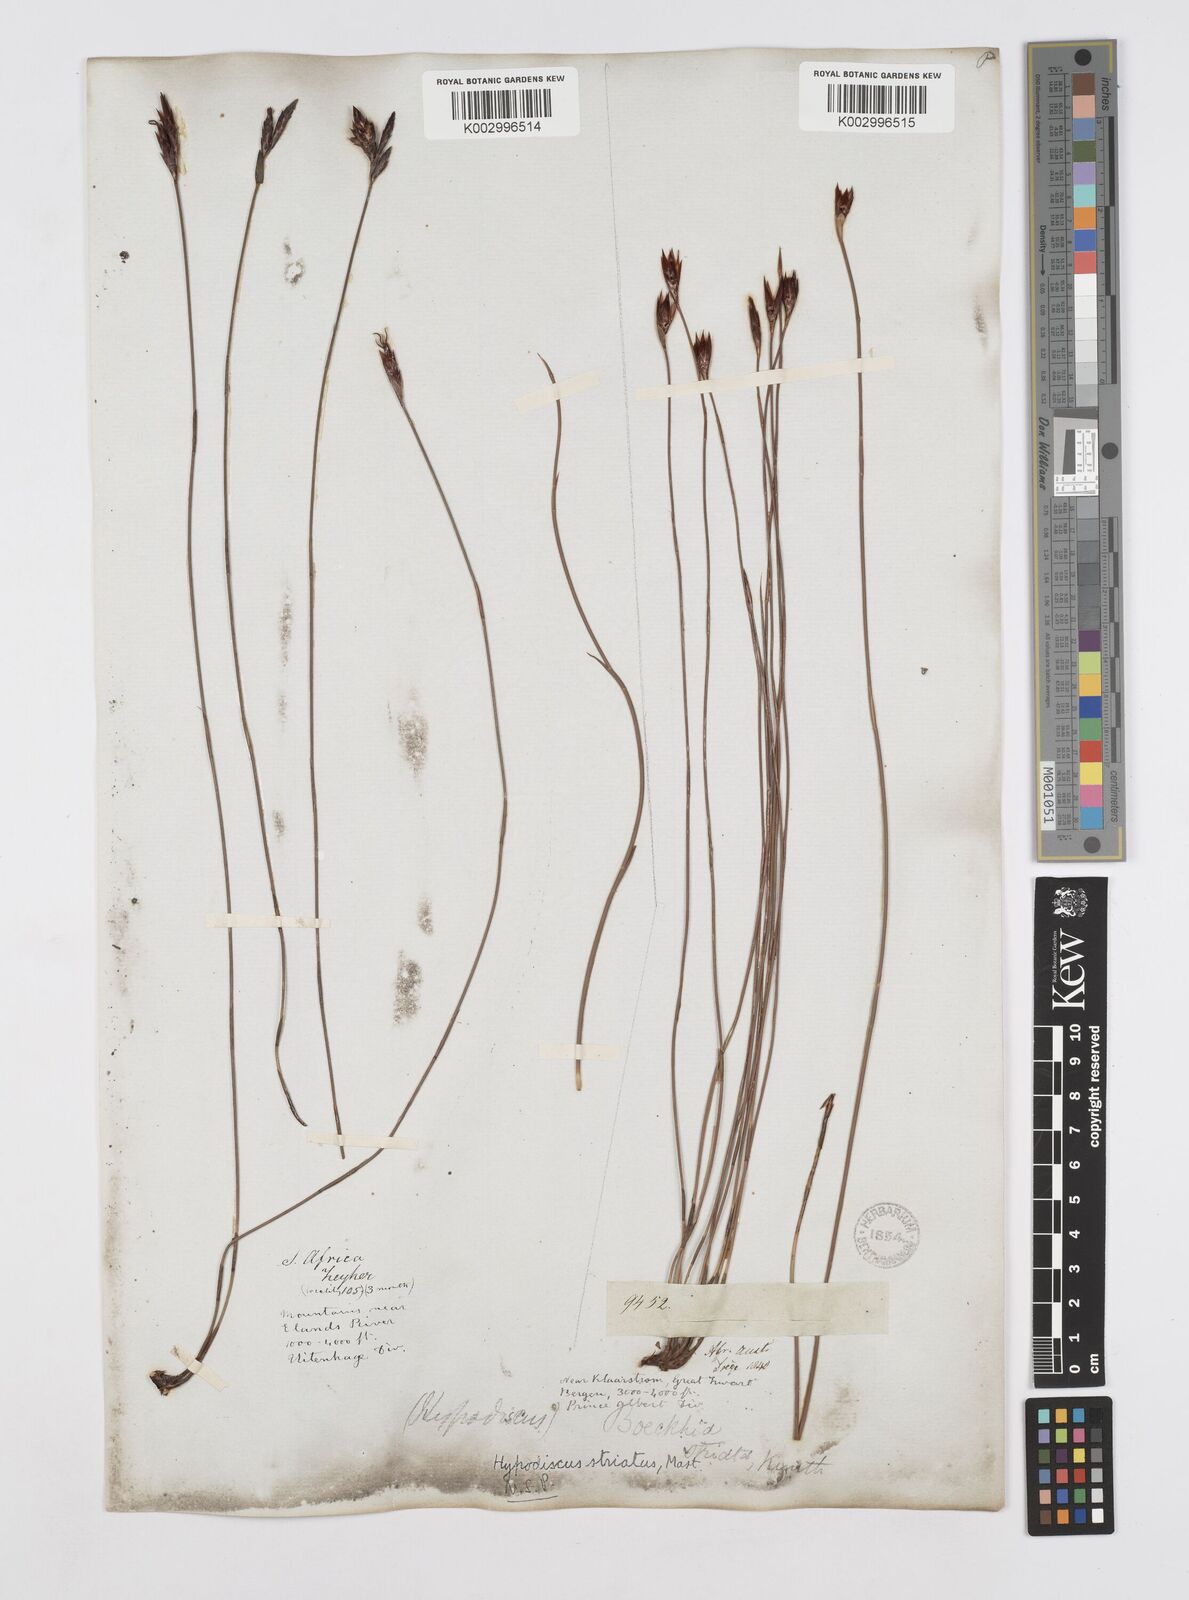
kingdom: Plantae
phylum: Tracheophyta
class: Liliopsida
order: Poales
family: Restionaceae
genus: Hypodiscus
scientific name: Hypodiscus striatus
